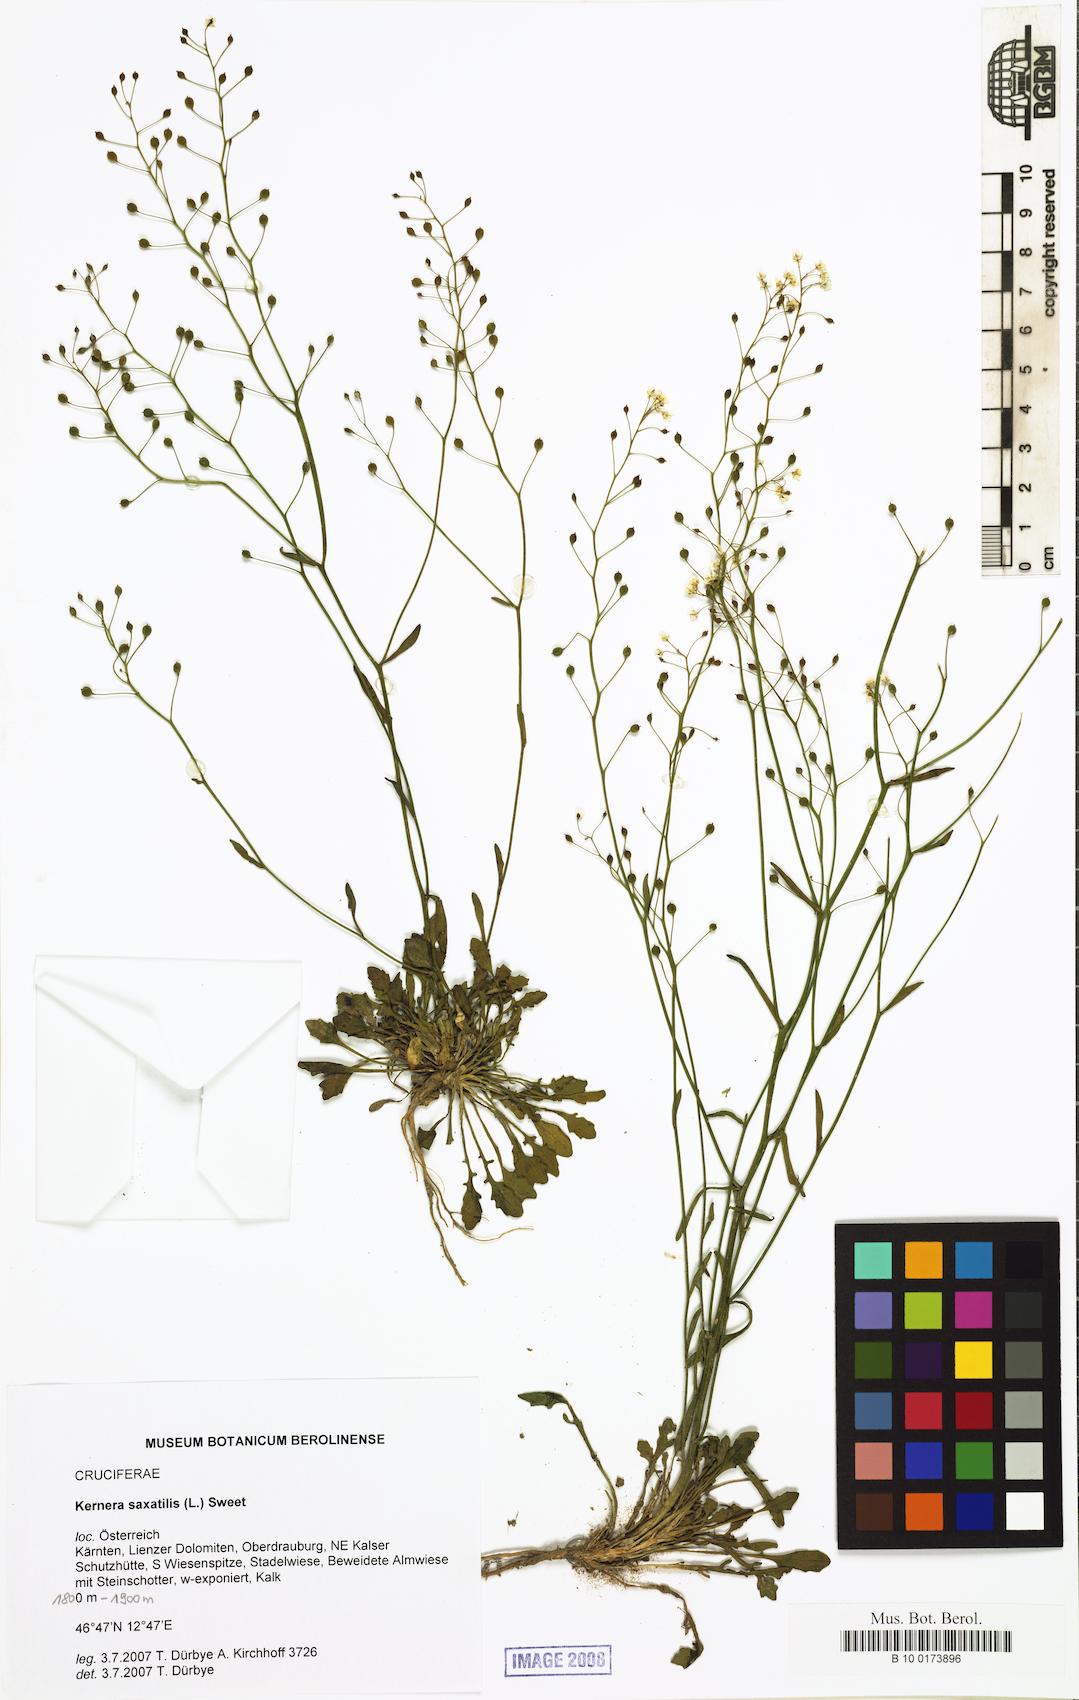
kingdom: Plantae
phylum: Tracheophyta
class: Magnoliopsida
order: Brassicales
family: Brassicaceae
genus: Kernera
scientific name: Kernera saxatilis
